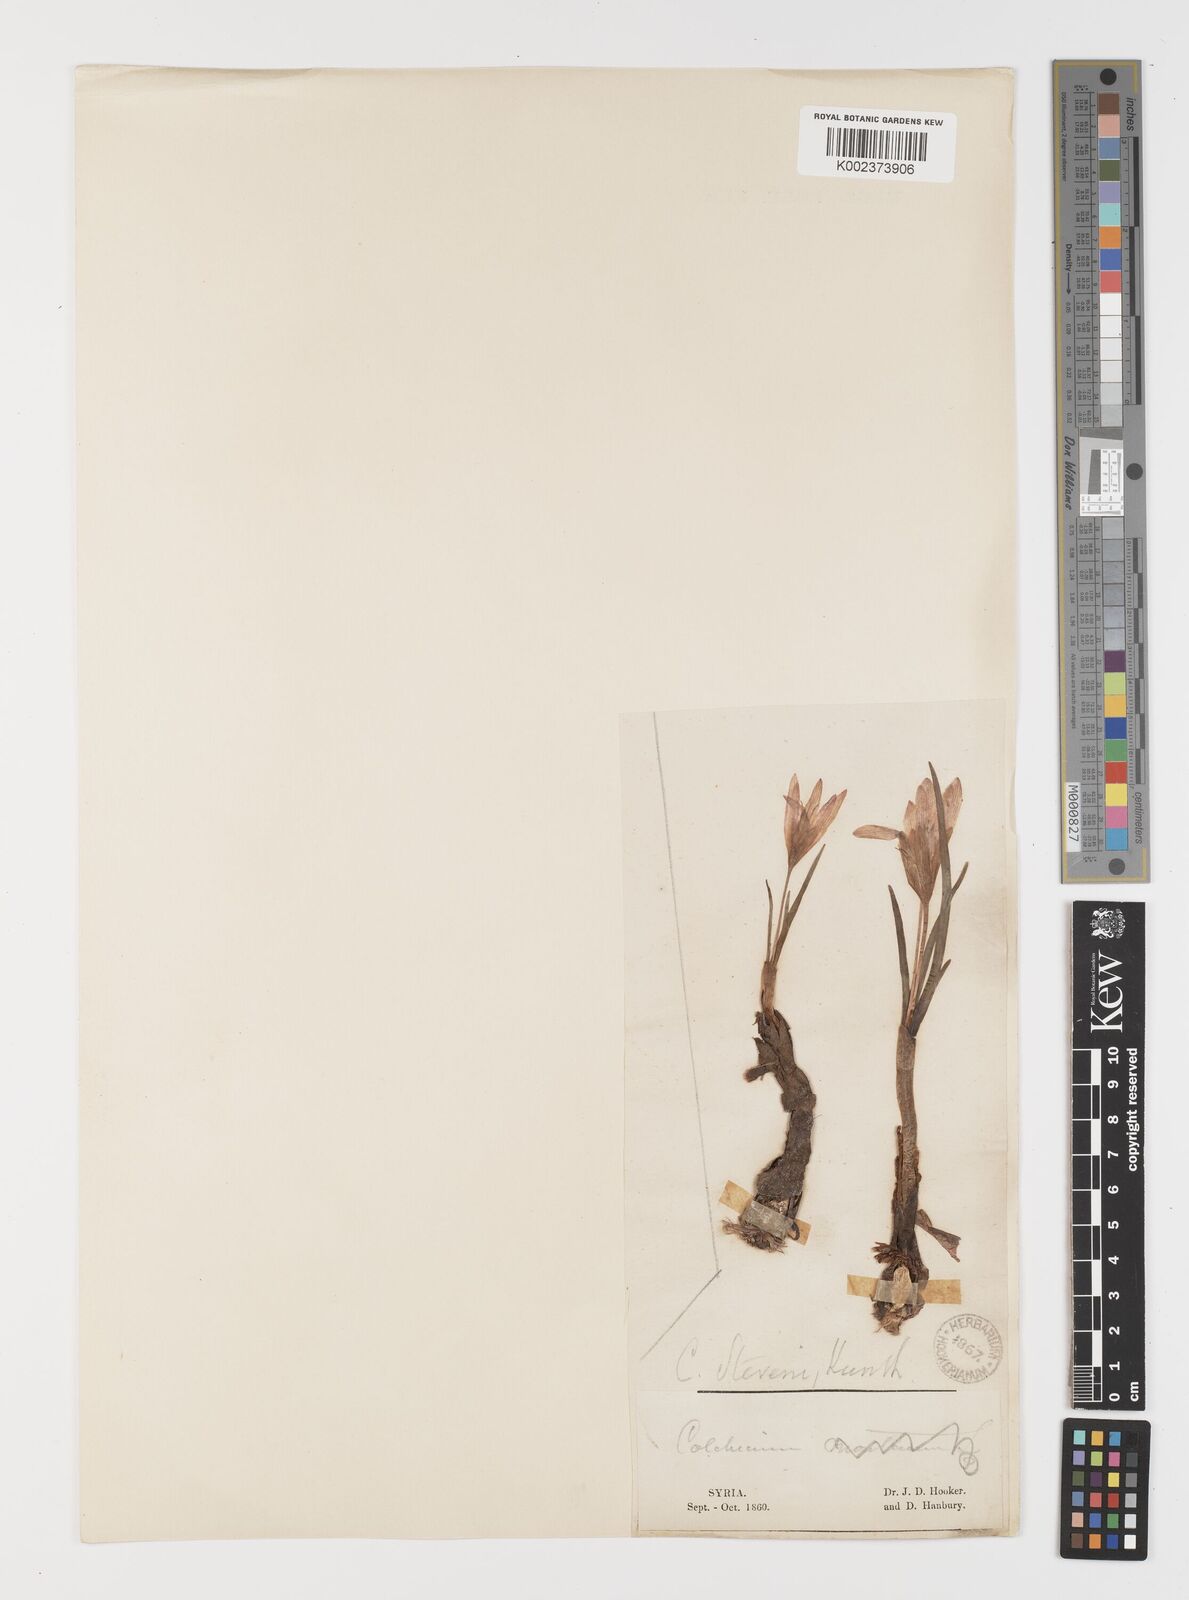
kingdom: Plantae
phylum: Tracheophyta
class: Liliopsida
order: Liliales
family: Colchicaceae
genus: Colchicum
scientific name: Colchicum stevenii
